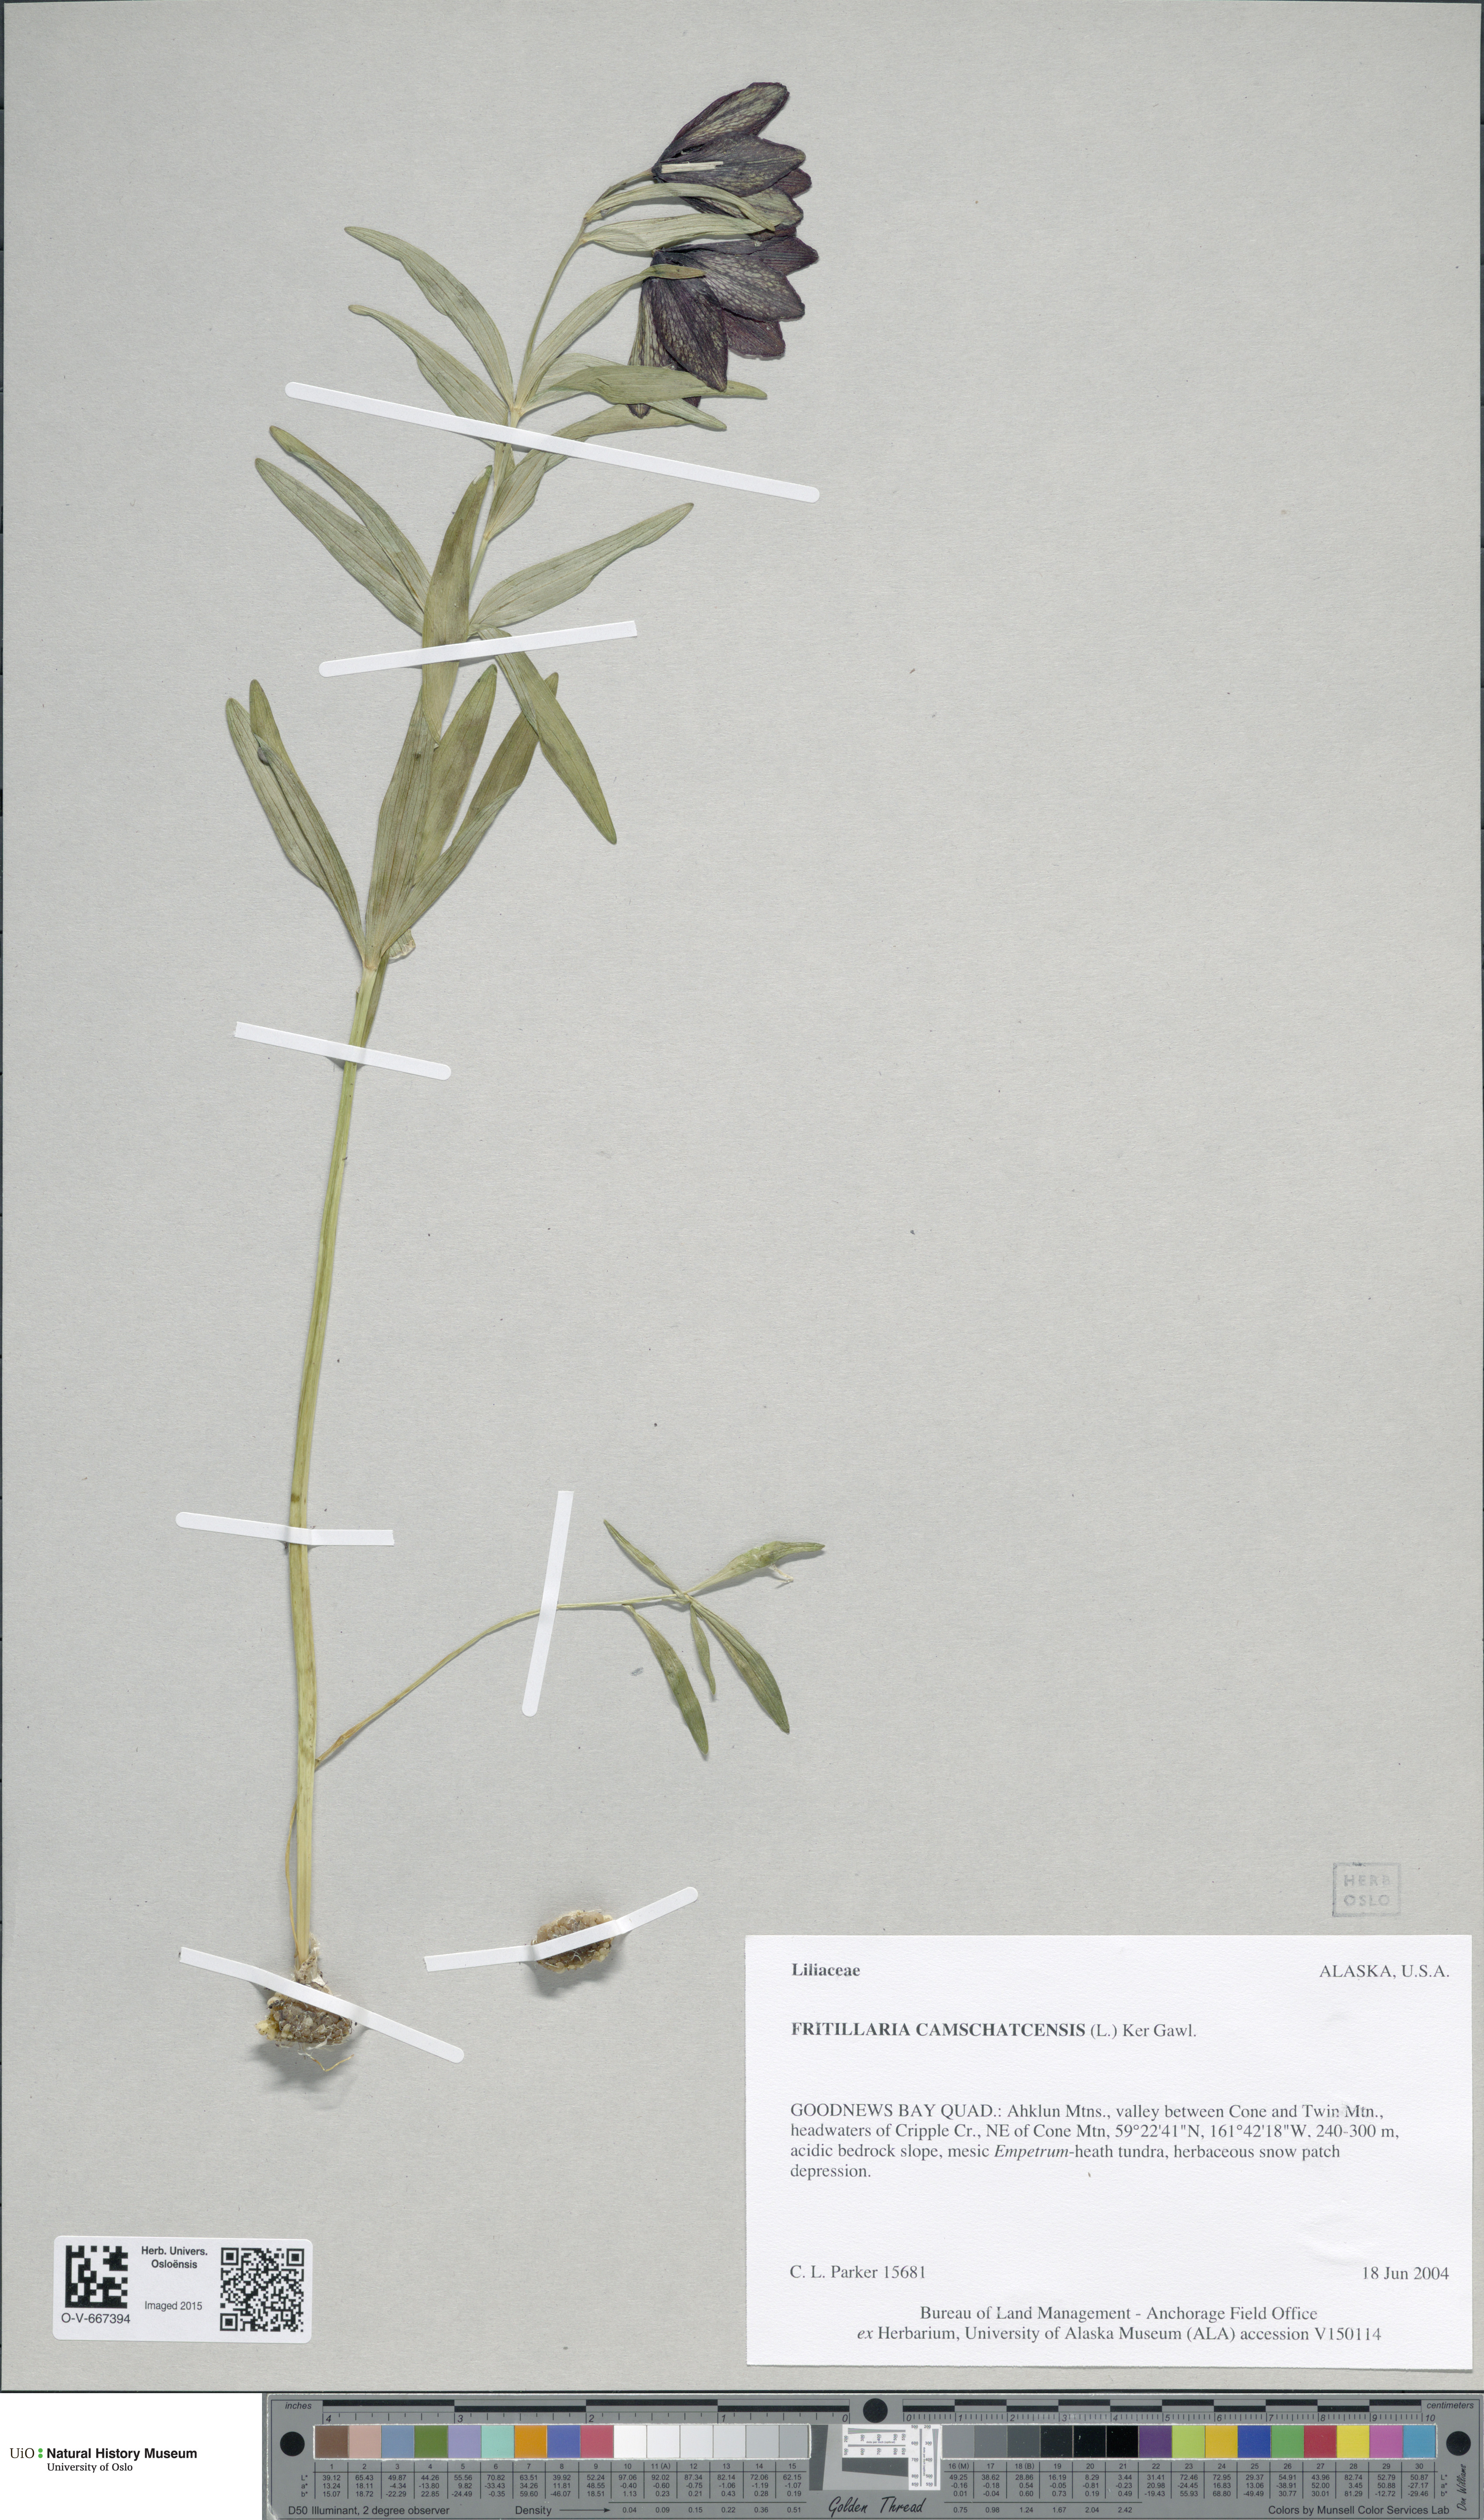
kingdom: Plantae
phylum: Tracheophyta
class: Liliopsida
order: Liliales
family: Liliaceae
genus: Fritillaria
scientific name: Fritillaria camschatcensis
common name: Kamchatka fritillary
